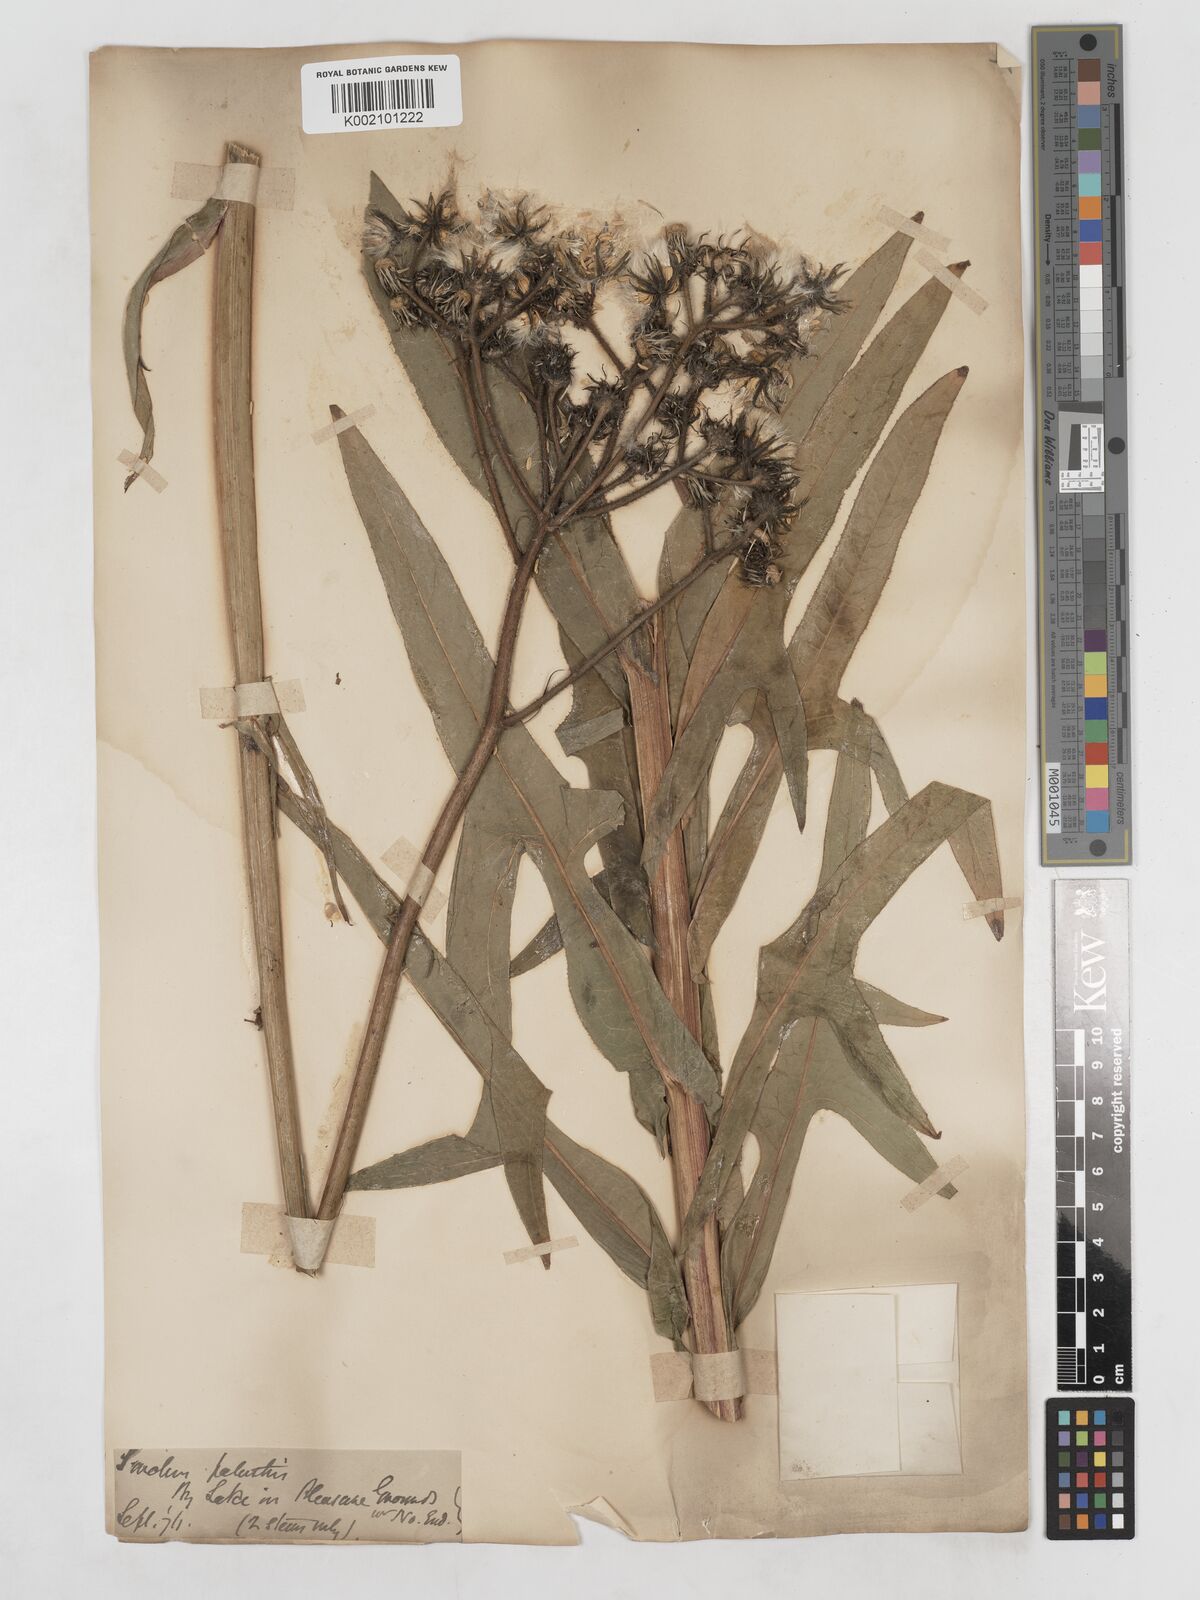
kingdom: Plantae
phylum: Tracheophyta
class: Magnoliopsida
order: Asterales
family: Asteraceae
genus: Sonchus
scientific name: Sonchus palustris
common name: Marsh sow-thistle
